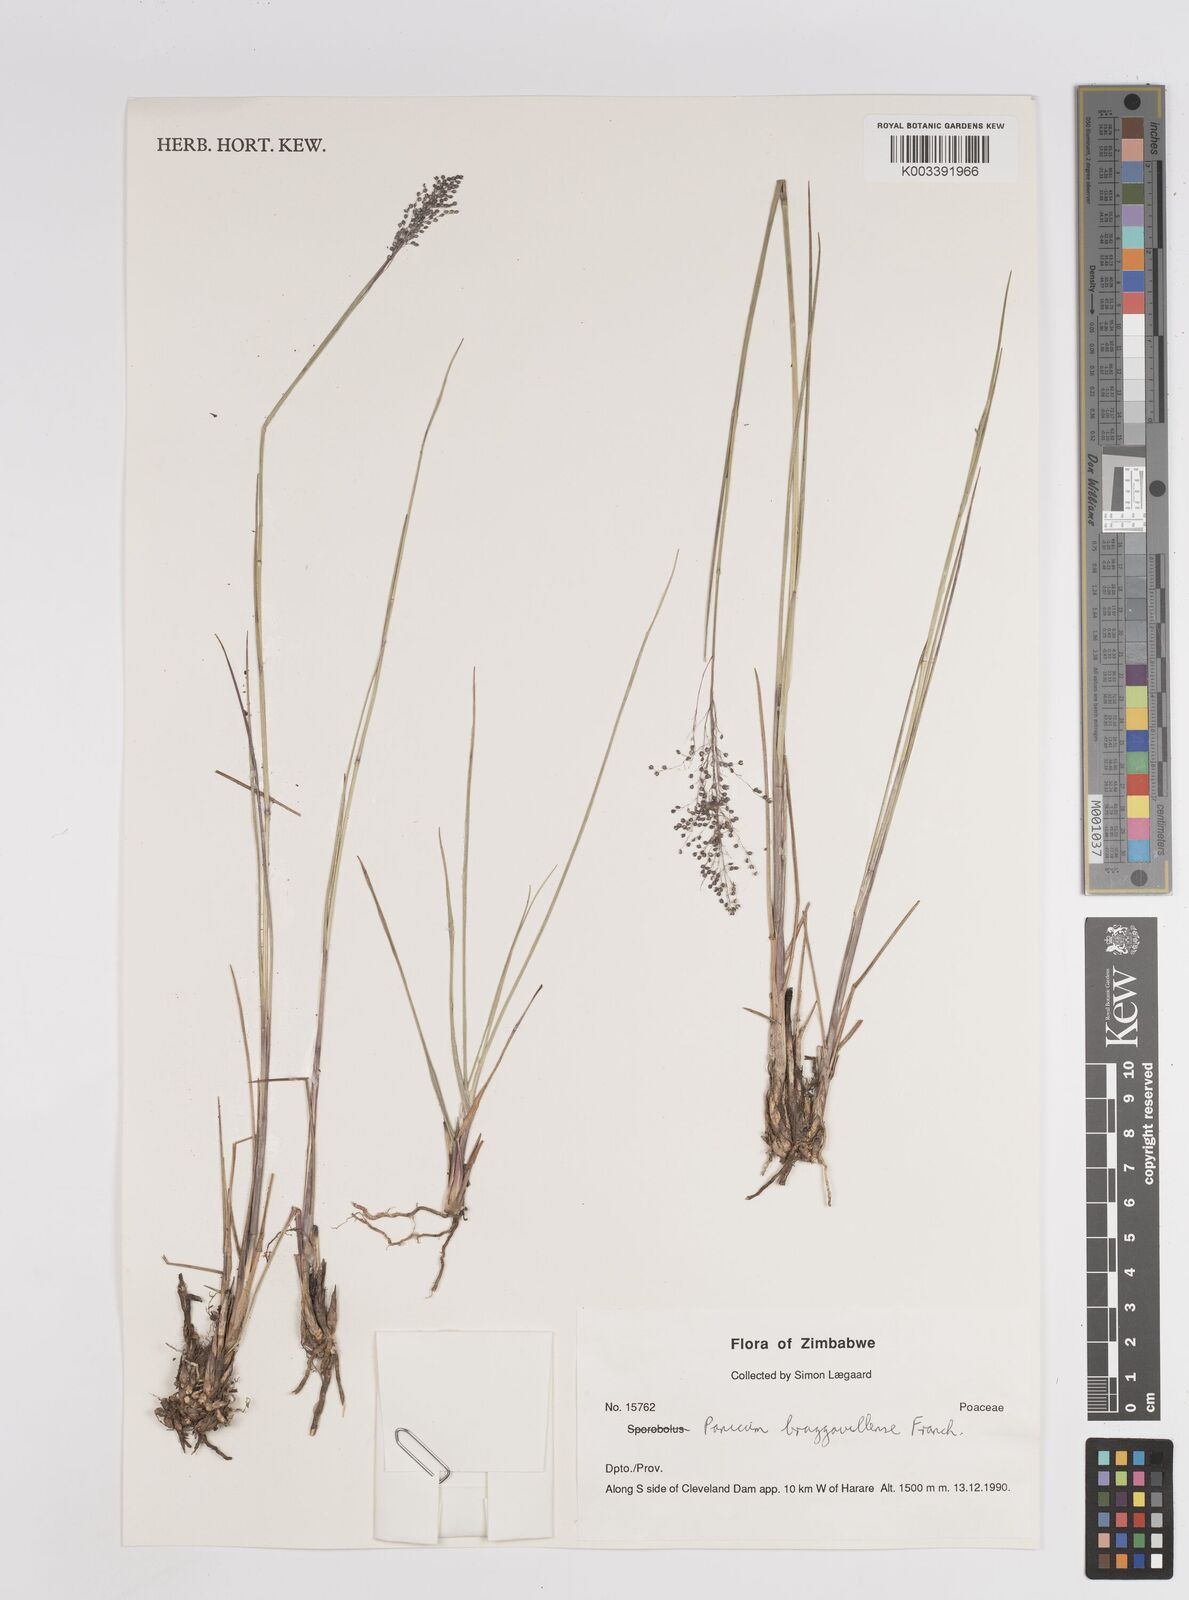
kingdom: Plantae
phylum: Tracheophyta
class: Liliopsida
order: Poales
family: Poaceae
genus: Trichanthecium
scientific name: Trichanthecium brazzavillense
